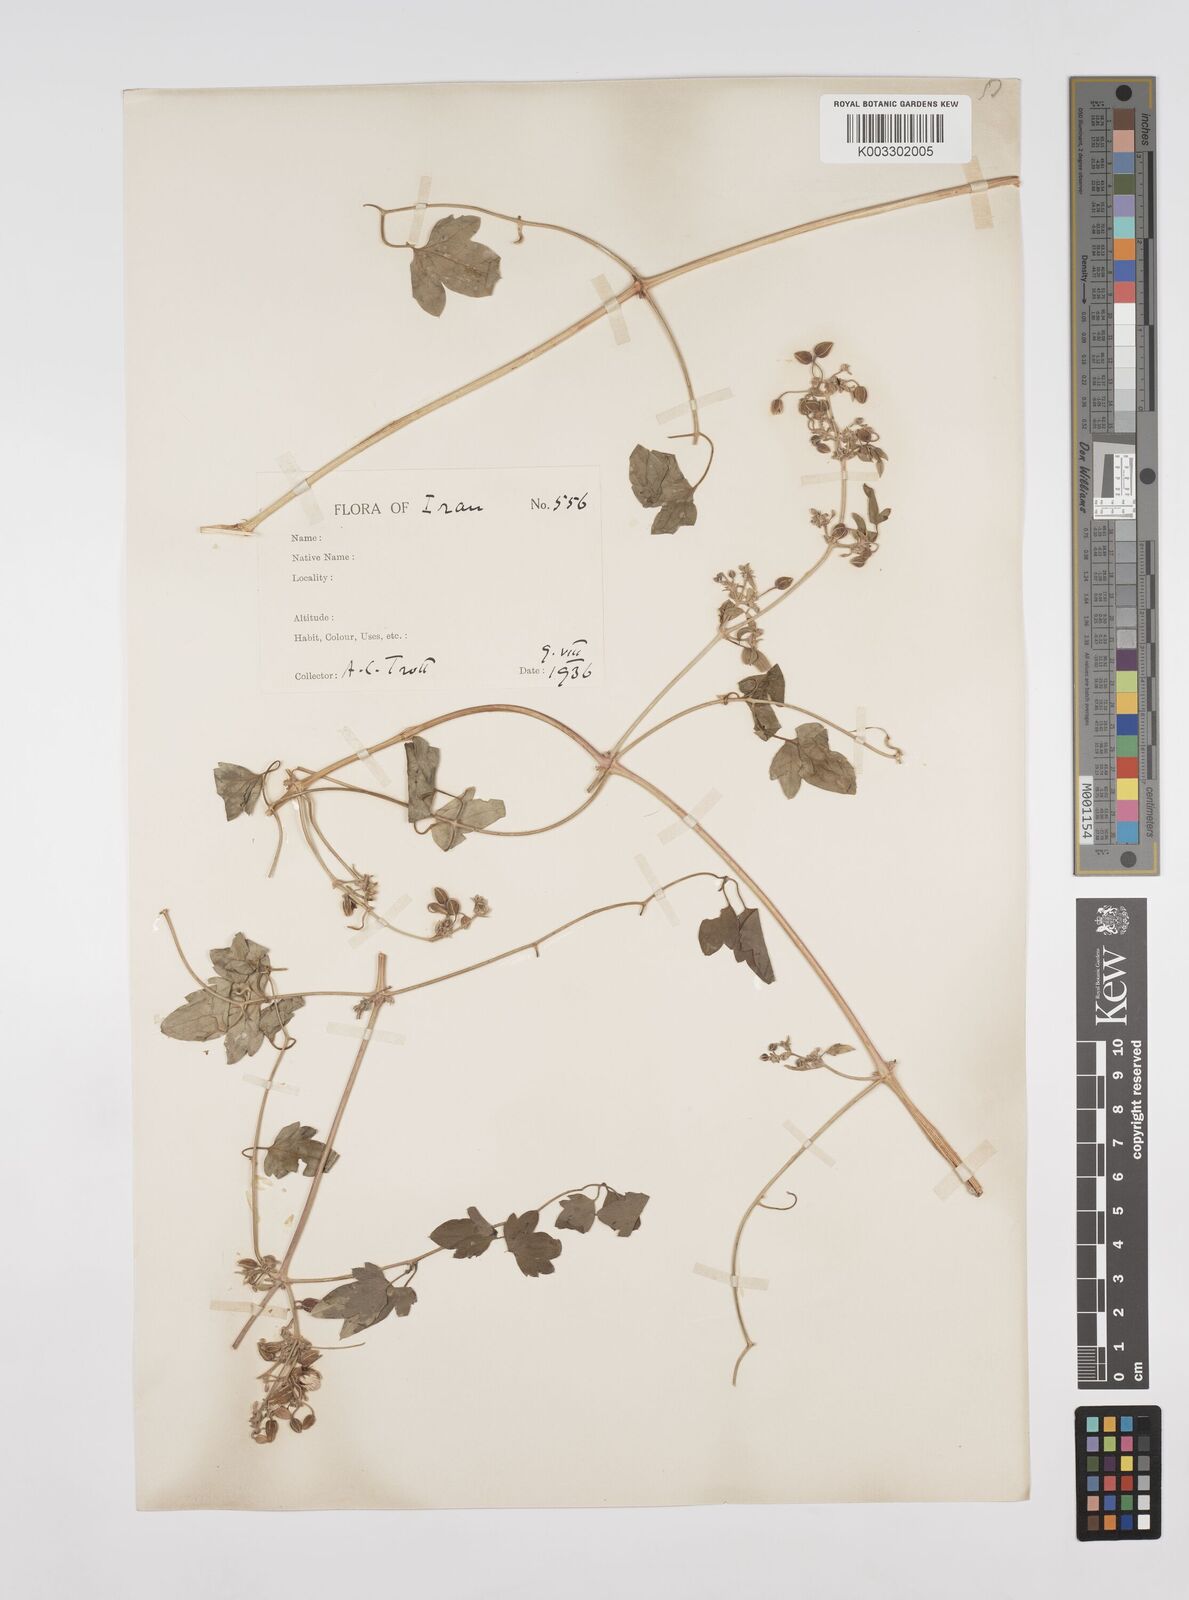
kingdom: Plantae
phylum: Tracheophyta
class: Magnoliopsida
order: Ranunculales
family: Ranunculaceae
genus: Clematis
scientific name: Clematis orientalis
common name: Oriental virgin's-bower
